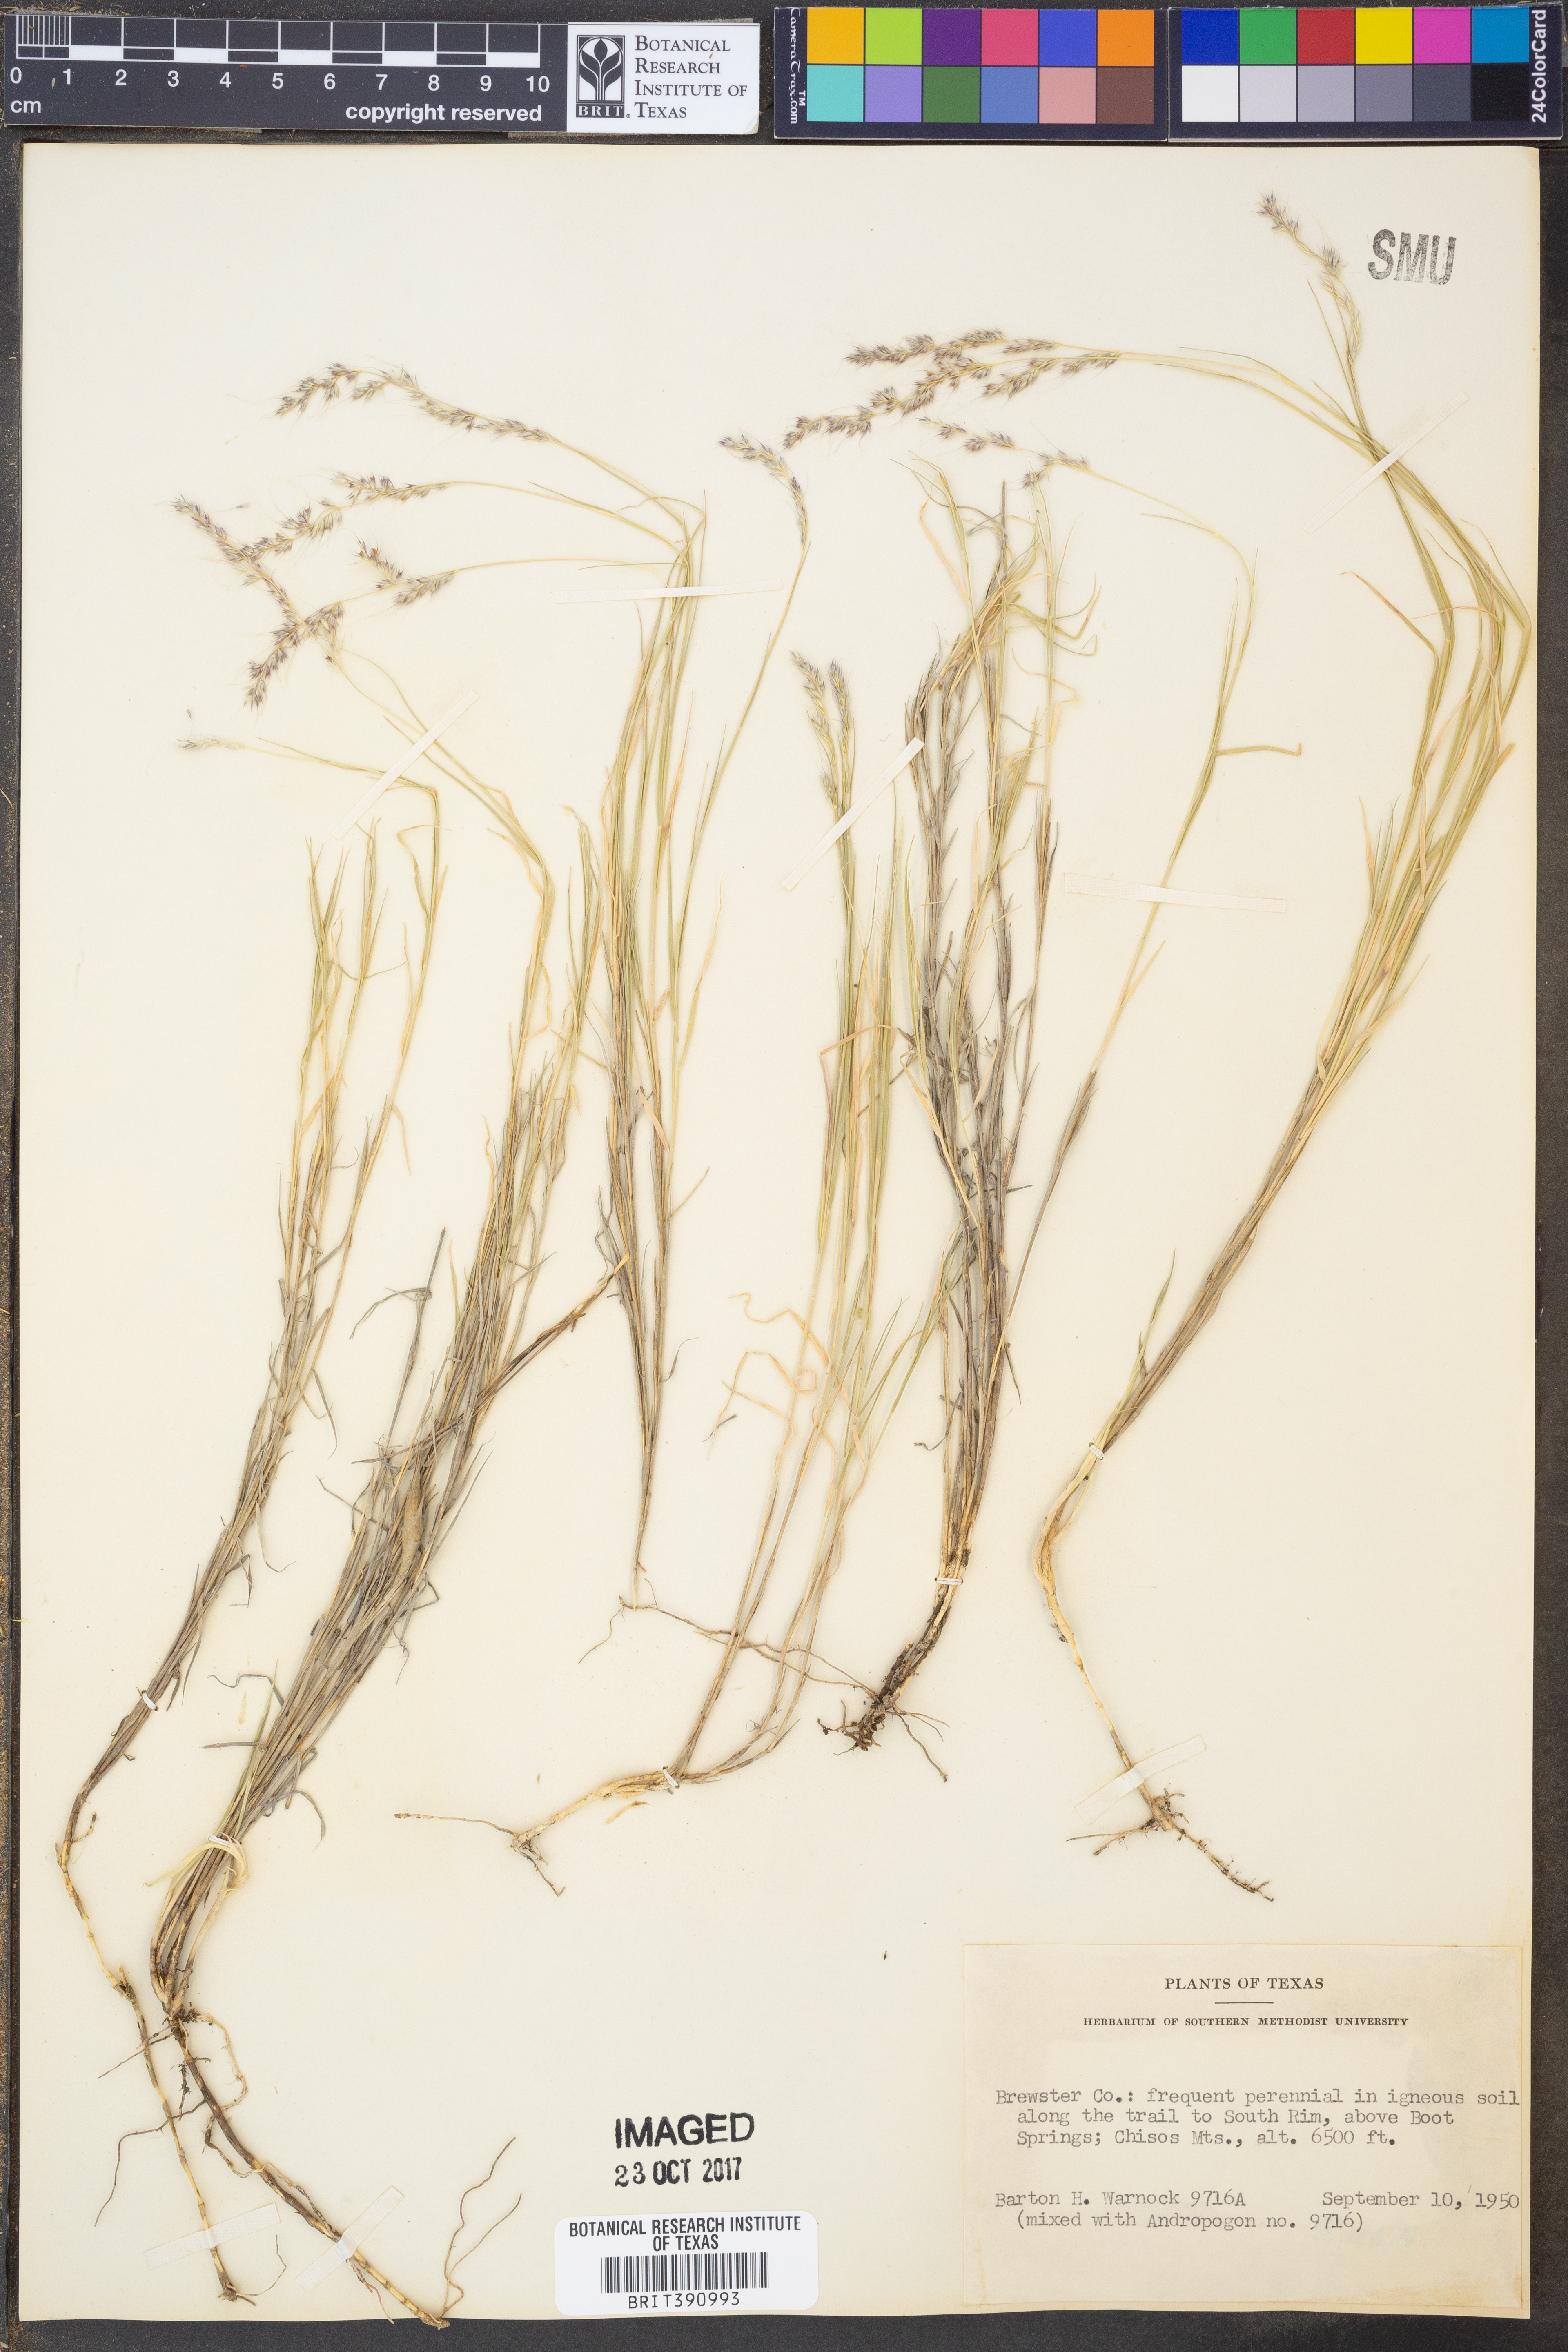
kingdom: Plantae
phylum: Tracheophyta
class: Liliopsida
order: Poales
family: Poaceae
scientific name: Poaceae
